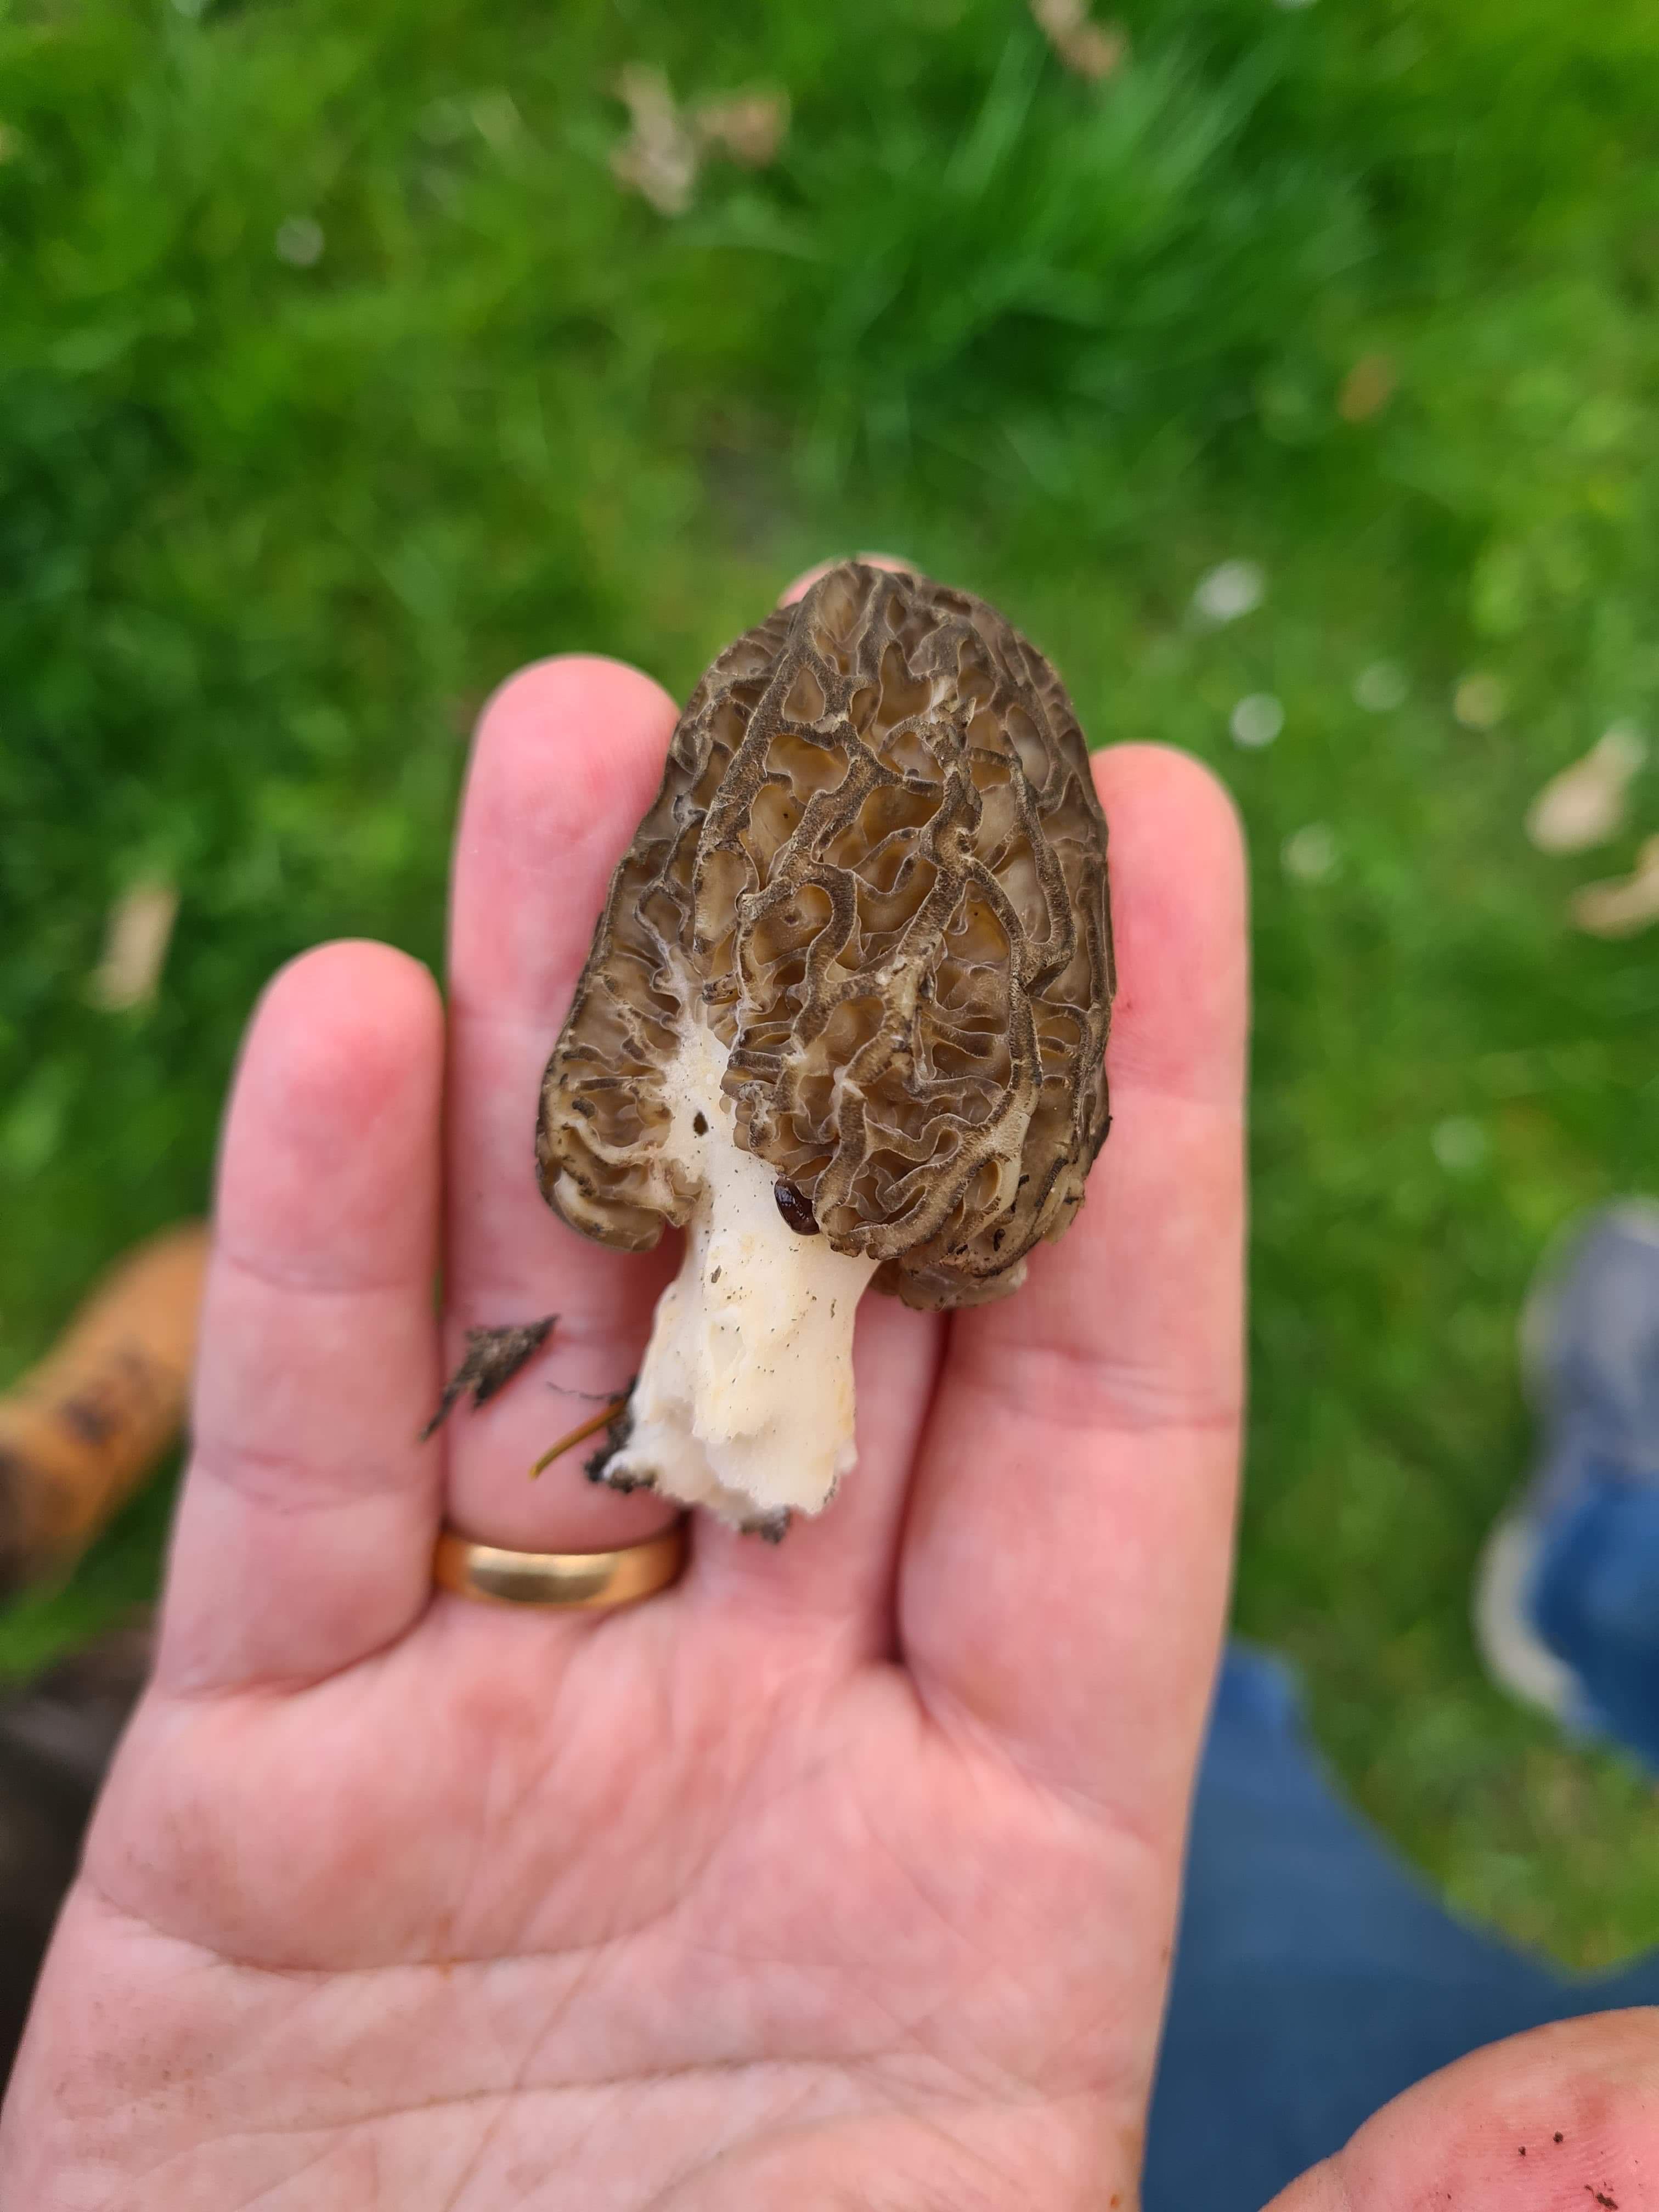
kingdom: Fungi
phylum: Ascomycota
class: Pezizomycetes
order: Pezizales
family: Morchellaceae
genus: Morchella
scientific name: Morchella importuna
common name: Landscaping black morel
